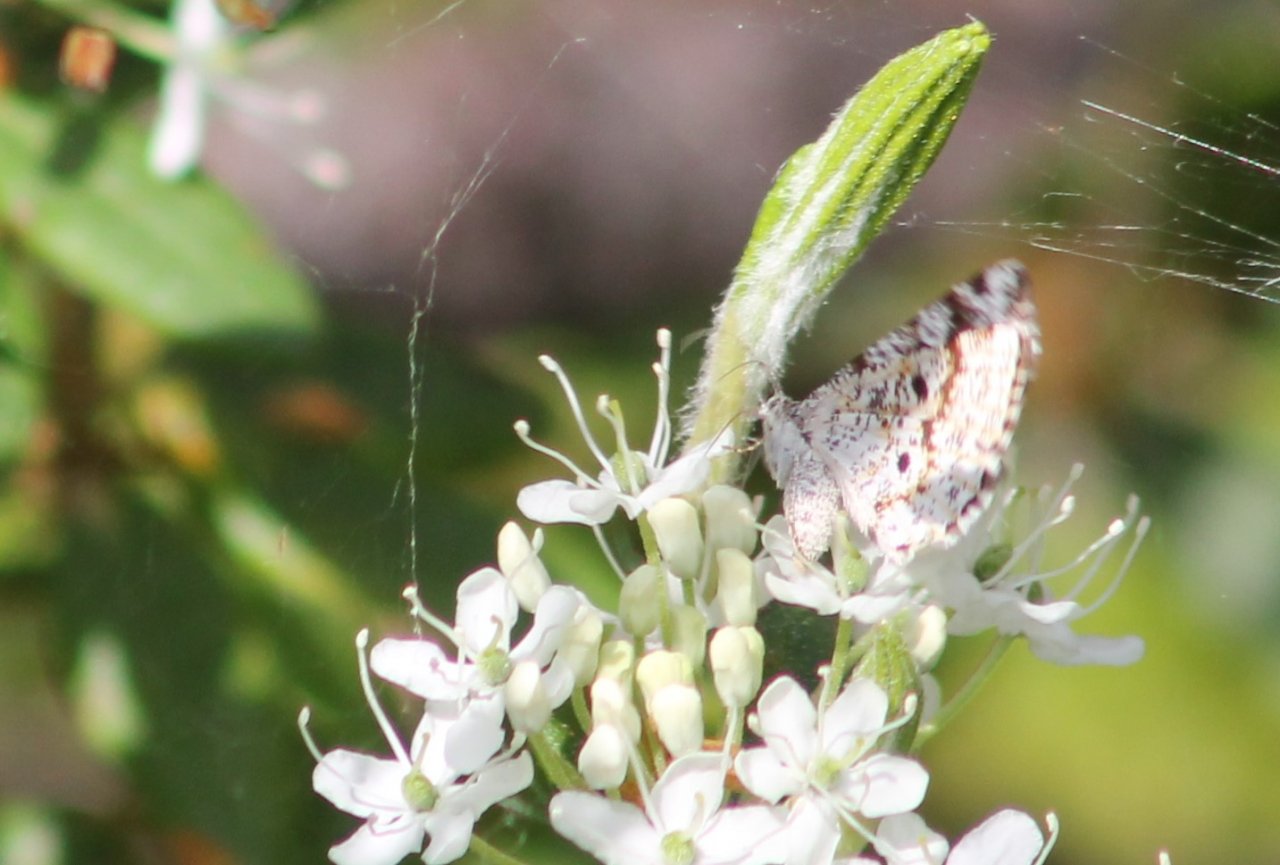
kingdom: Animalia
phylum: Arthropoda
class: Insecta
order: Lepidoptera
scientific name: Lepidoptera
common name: Butterflies
